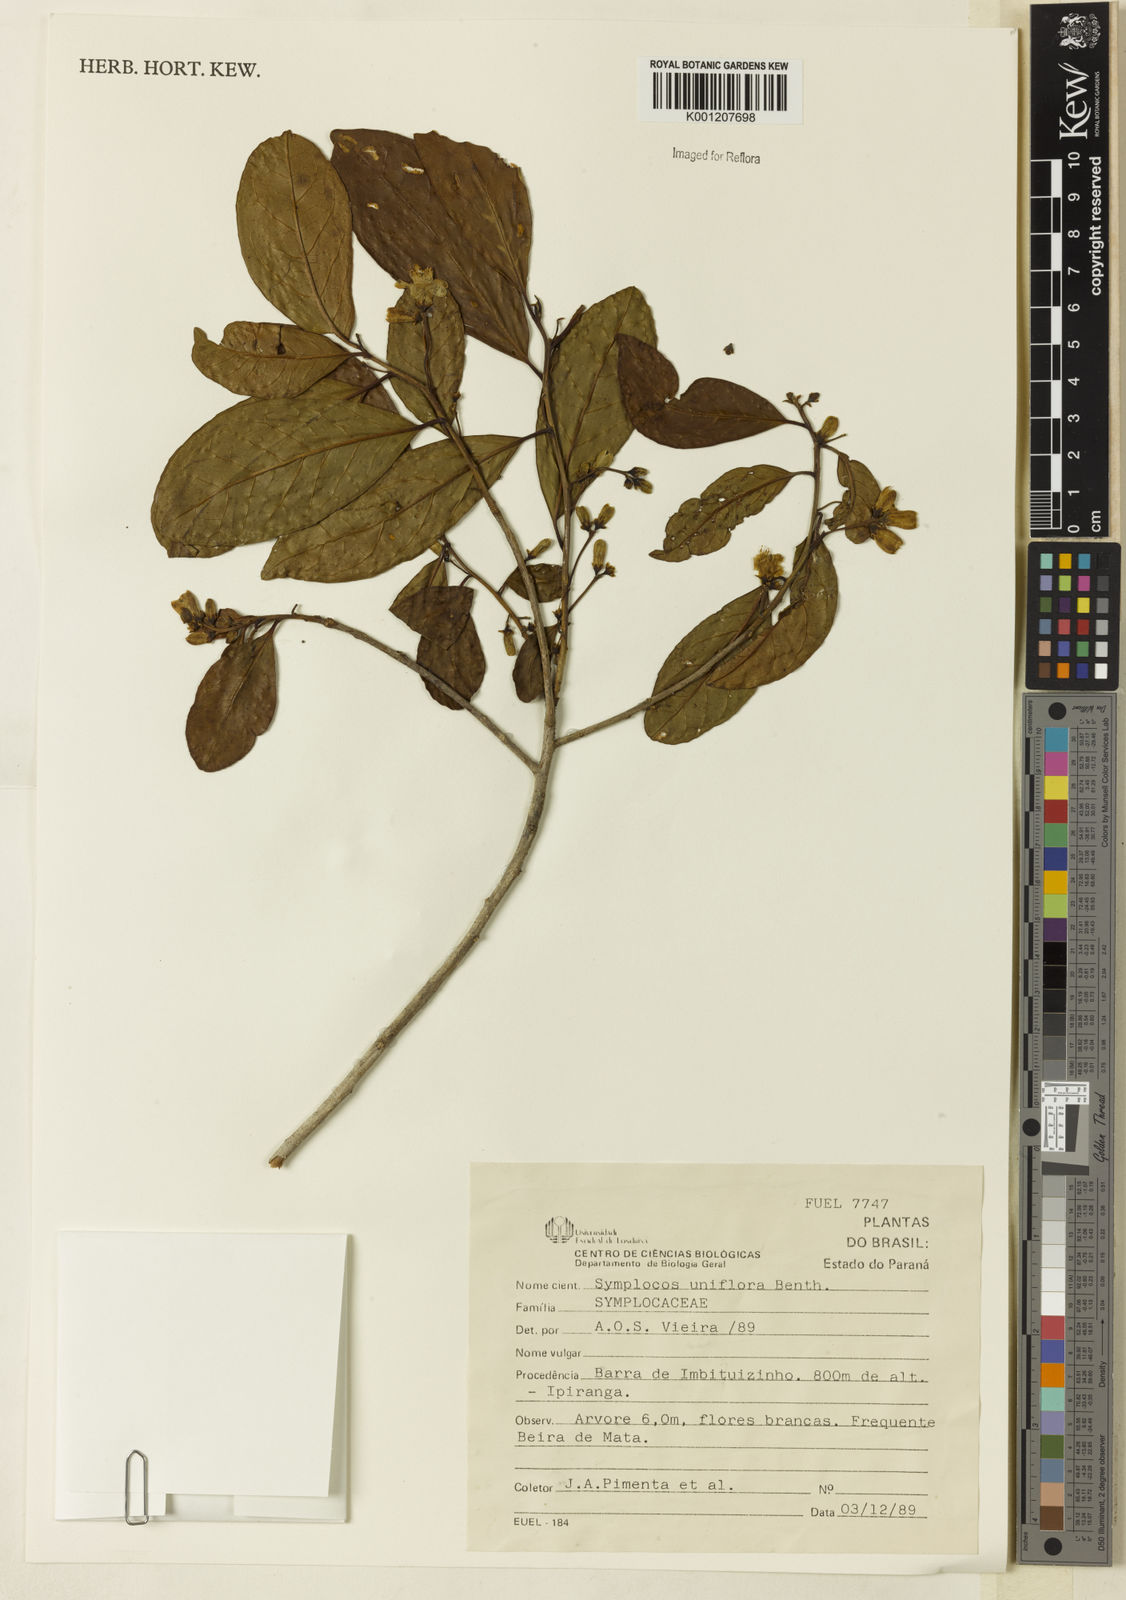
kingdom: Plantae
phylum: Tracheophyta
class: Magnoliopsida
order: Ericales
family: Symplocaceae
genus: Symplocos
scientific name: Symplocos uniflora
